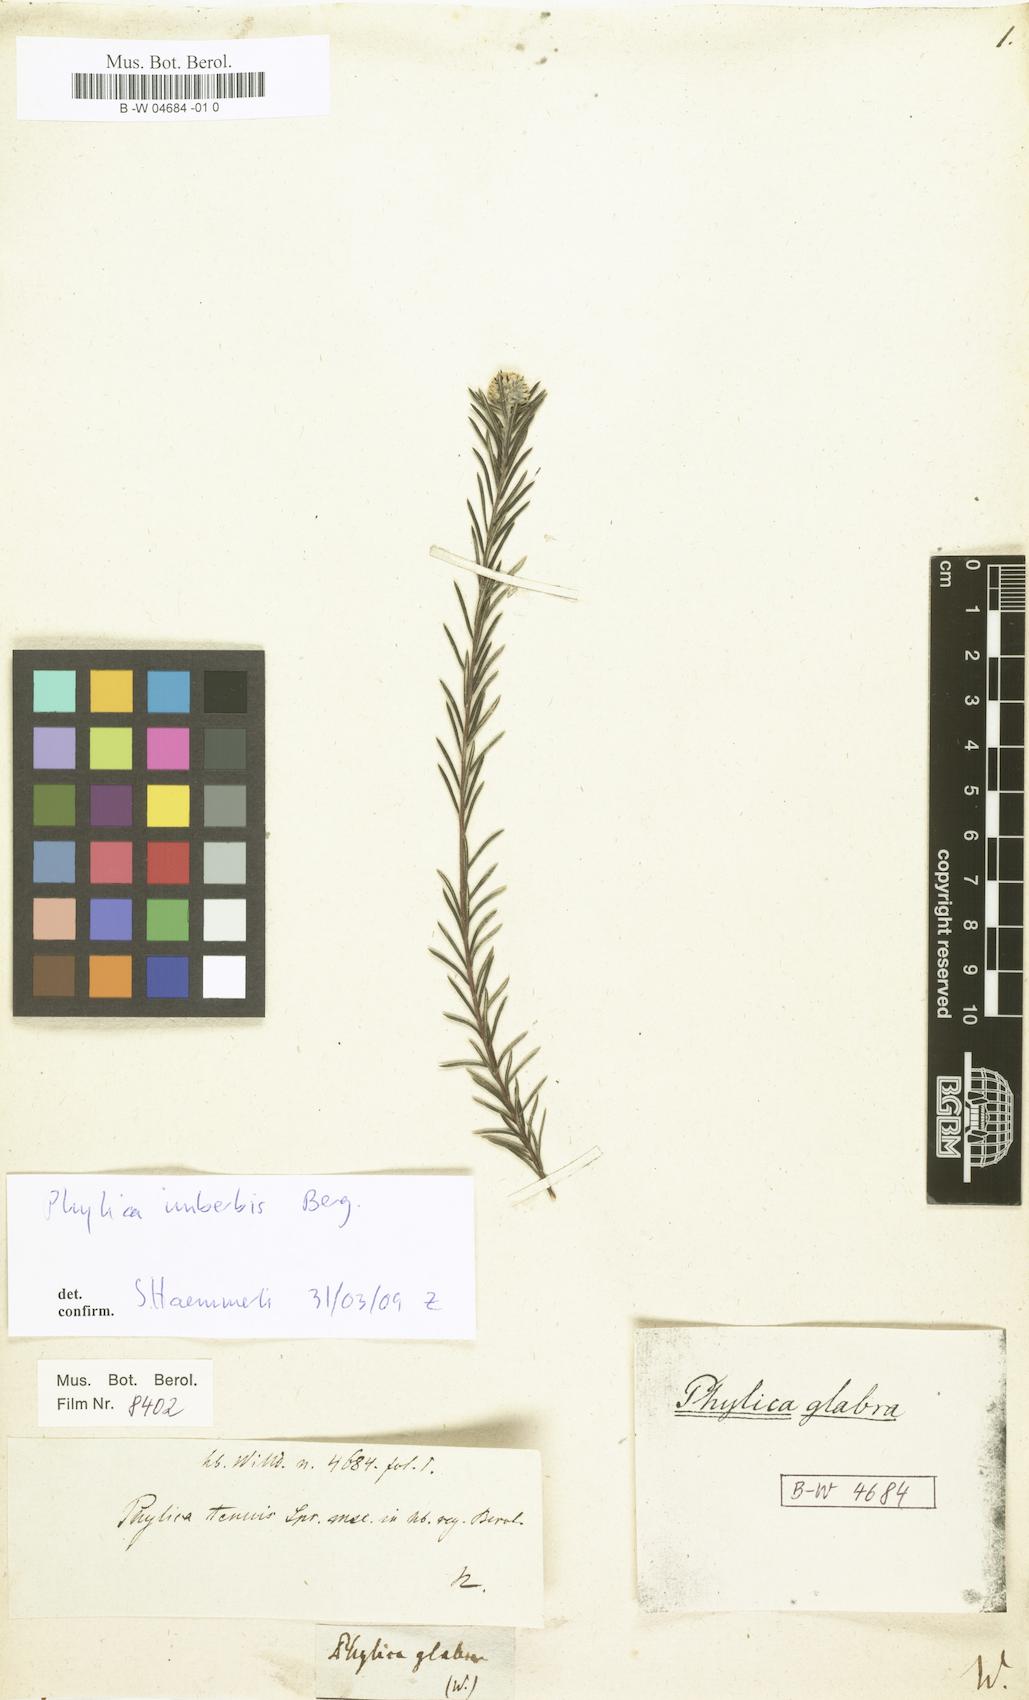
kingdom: Plantae
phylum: Tracheophyta
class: Magnoliopsida
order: Rosales
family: Rhamnaceae
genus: Phylica
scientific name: Phylica glabrata
